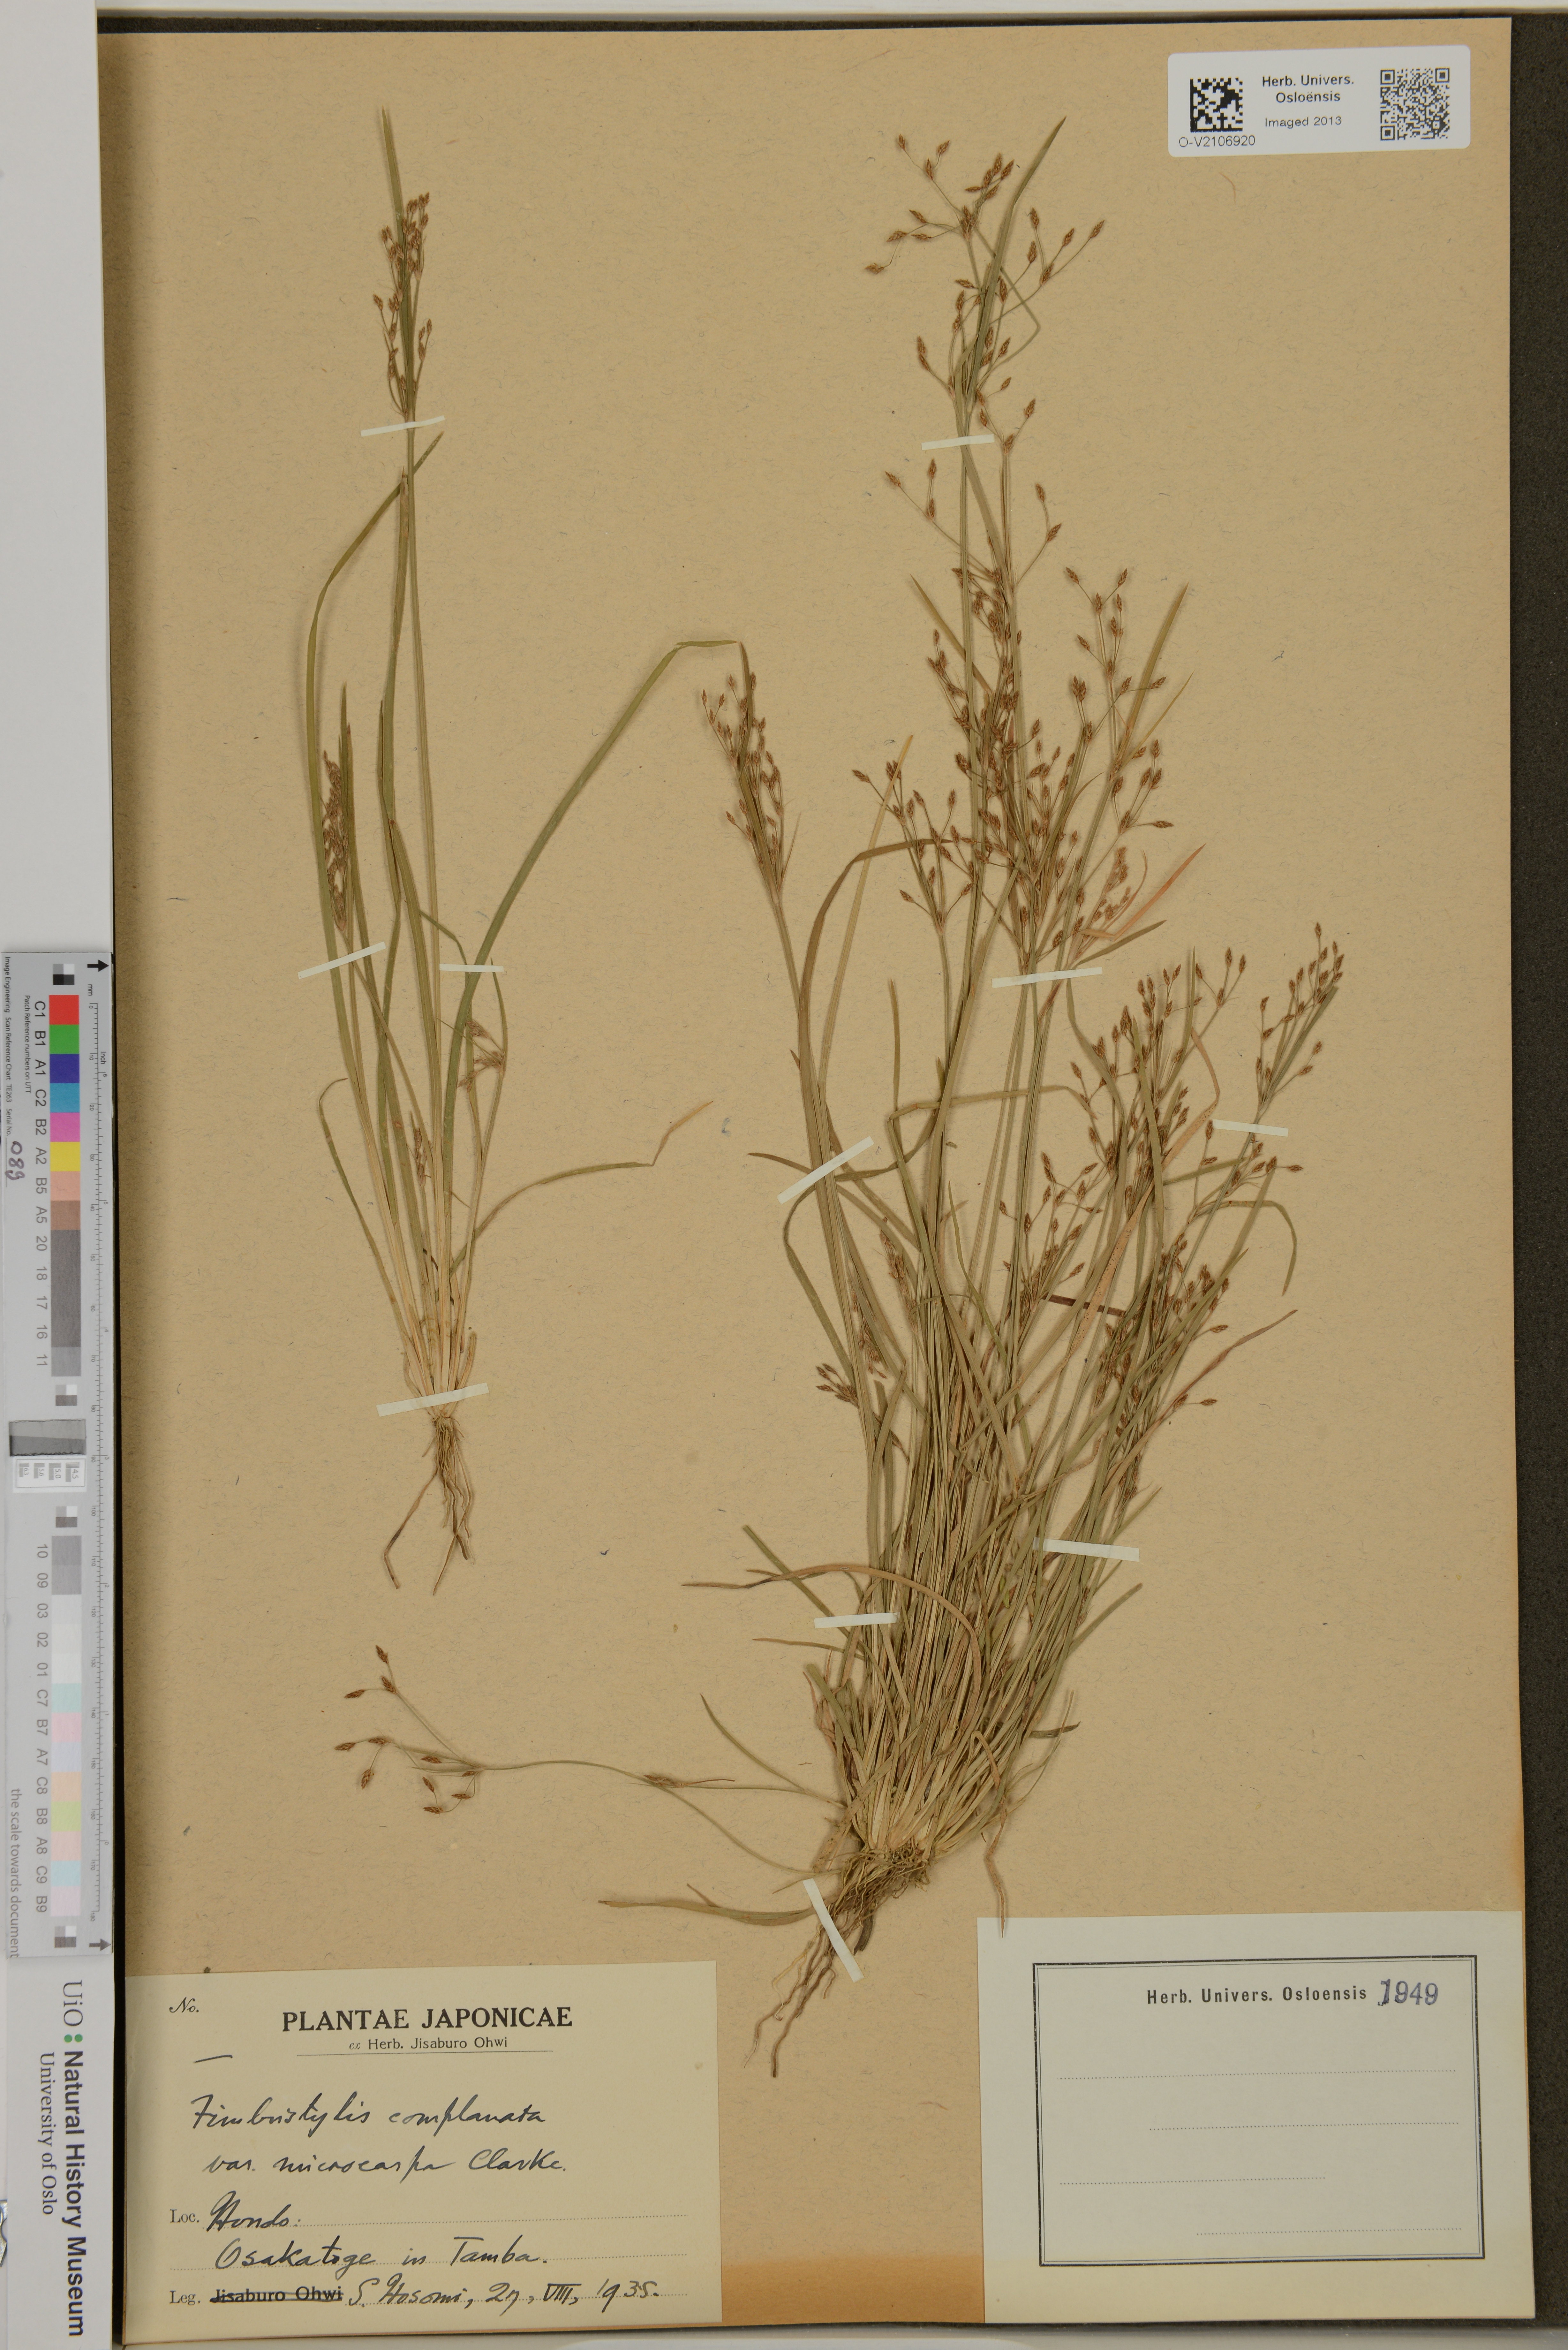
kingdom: Plantae
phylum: Tracheophyta
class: Liliopsida
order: Poales
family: Cyperaceae
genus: Fimbristylis
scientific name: Fimbristylis complanata
